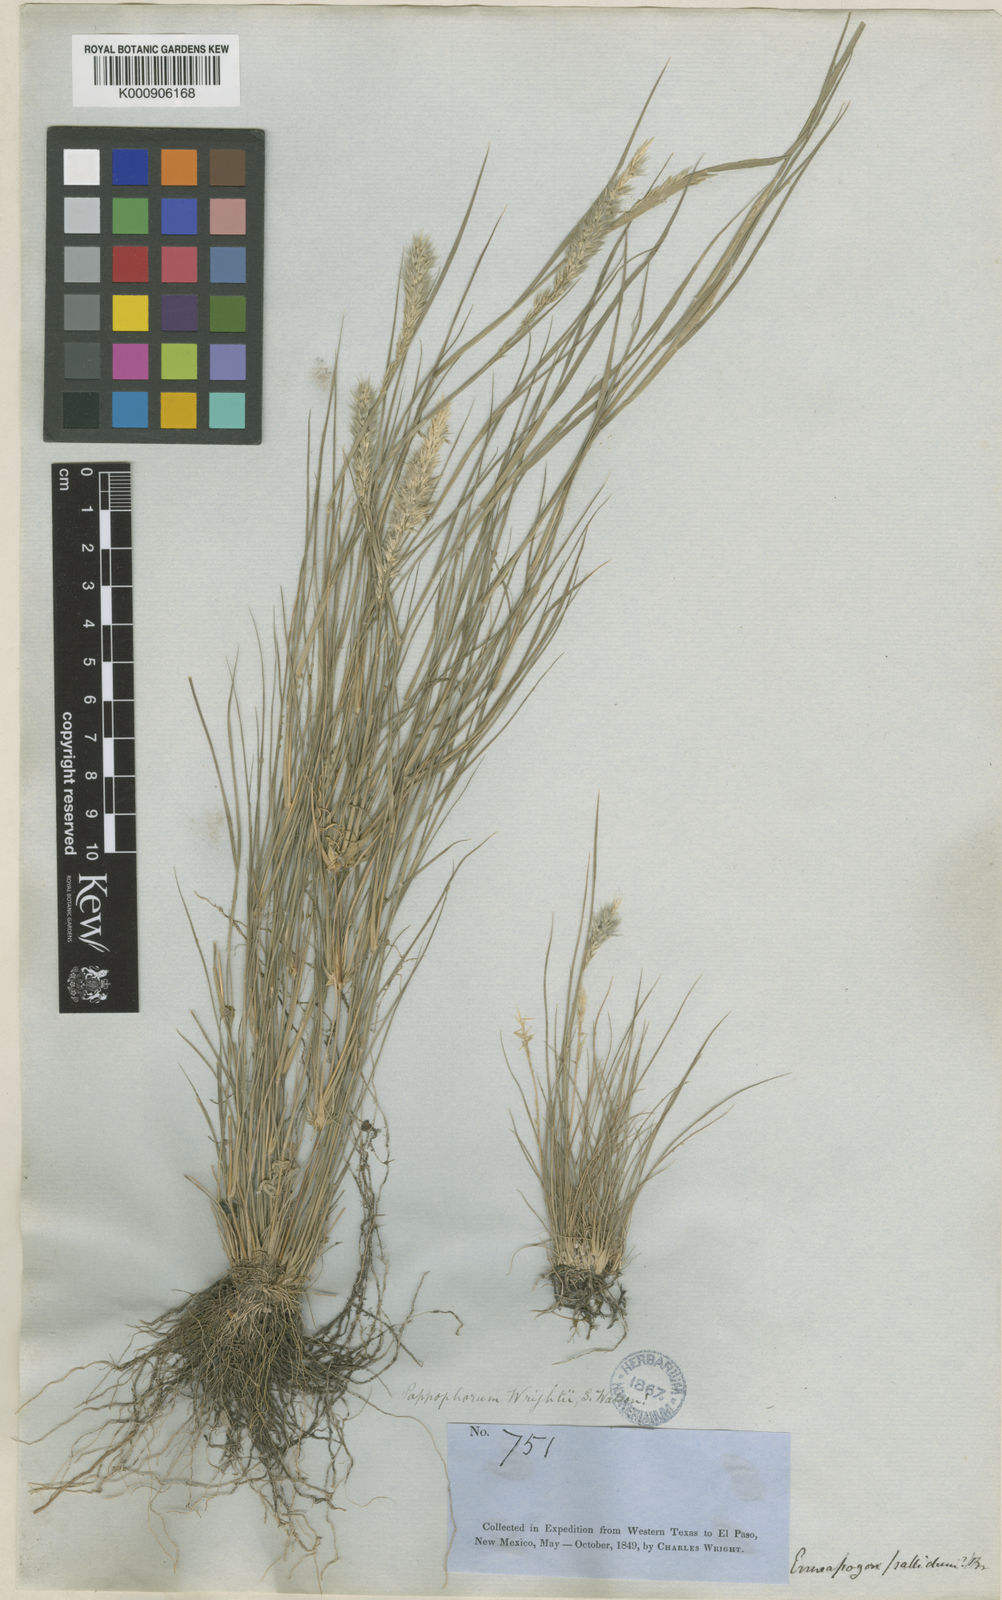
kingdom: Plantae
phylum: Tracheophyta
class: Liliopsida
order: Poales
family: Poaceae
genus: Enneapogon
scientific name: Enneapogon desvauxii
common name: Feather pappus grass
